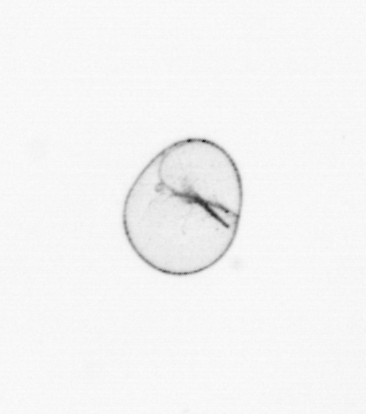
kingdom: Chromista
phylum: Myzozoa
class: Dinophyceae
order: Noctilucales
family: Noctilucaceae
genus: Noctiluca
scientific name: Noctiluca scintillans
